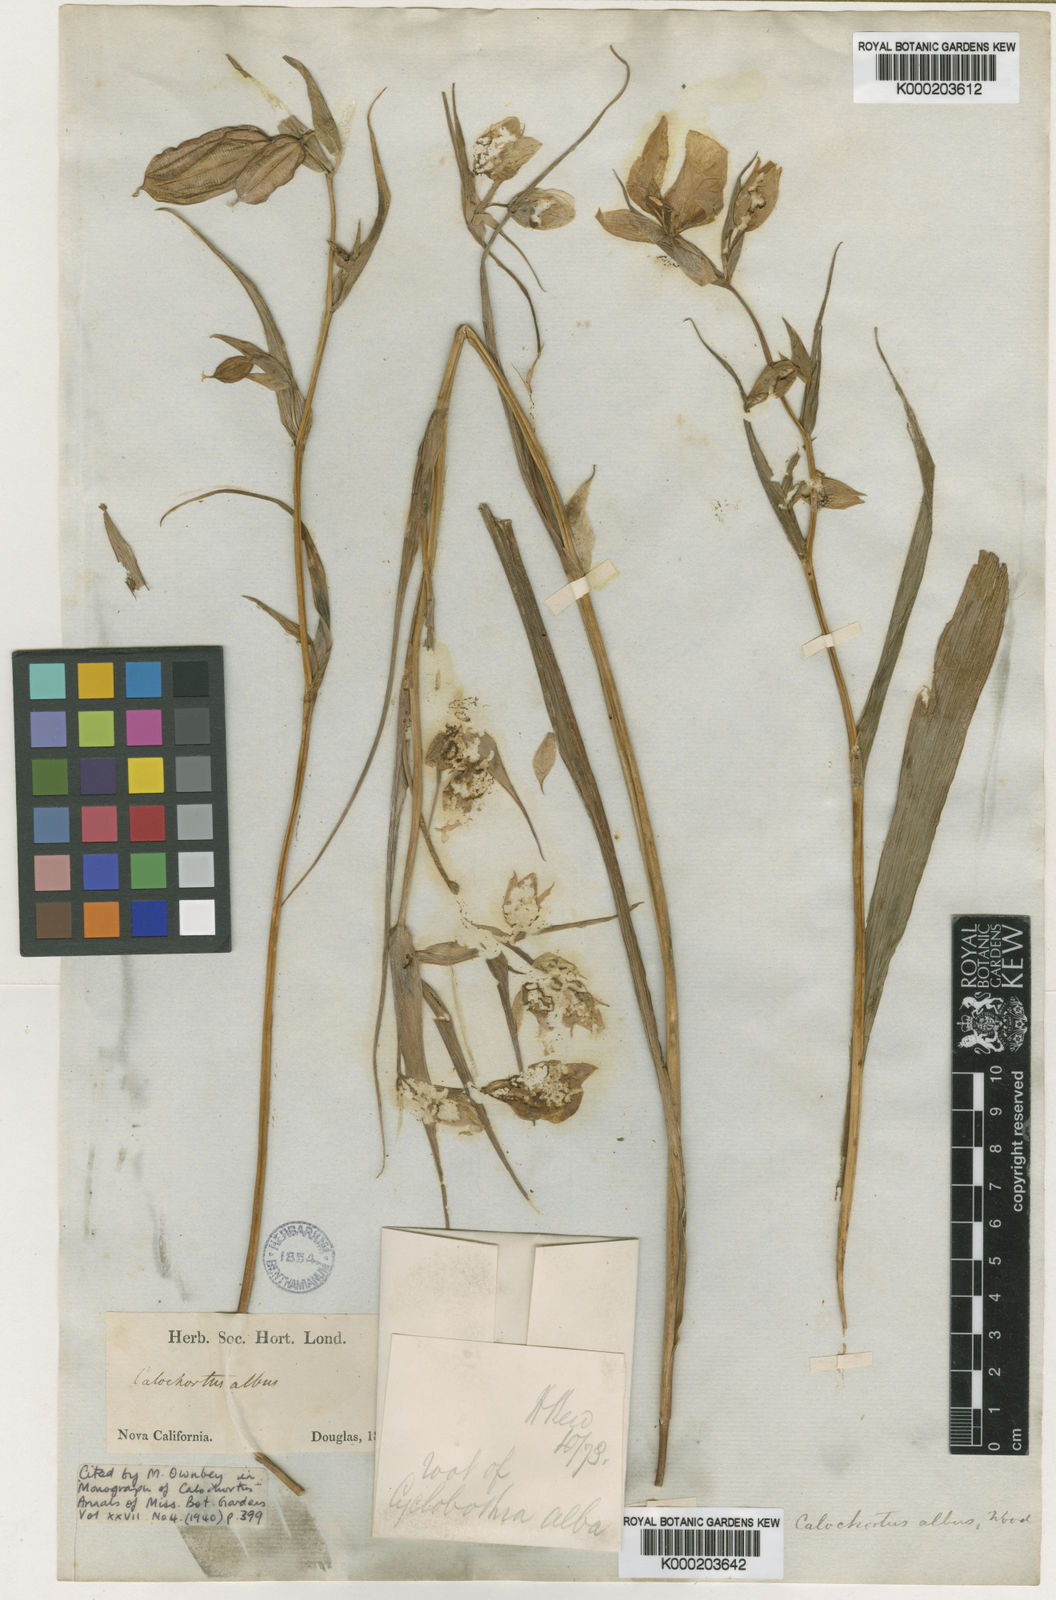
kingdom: Plantae
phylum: Tracheophyta
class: Liliopsida
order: Liliales
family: Liliaceae
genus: Calochortus
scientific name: Calochortus albus
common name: Fairy-lantern
